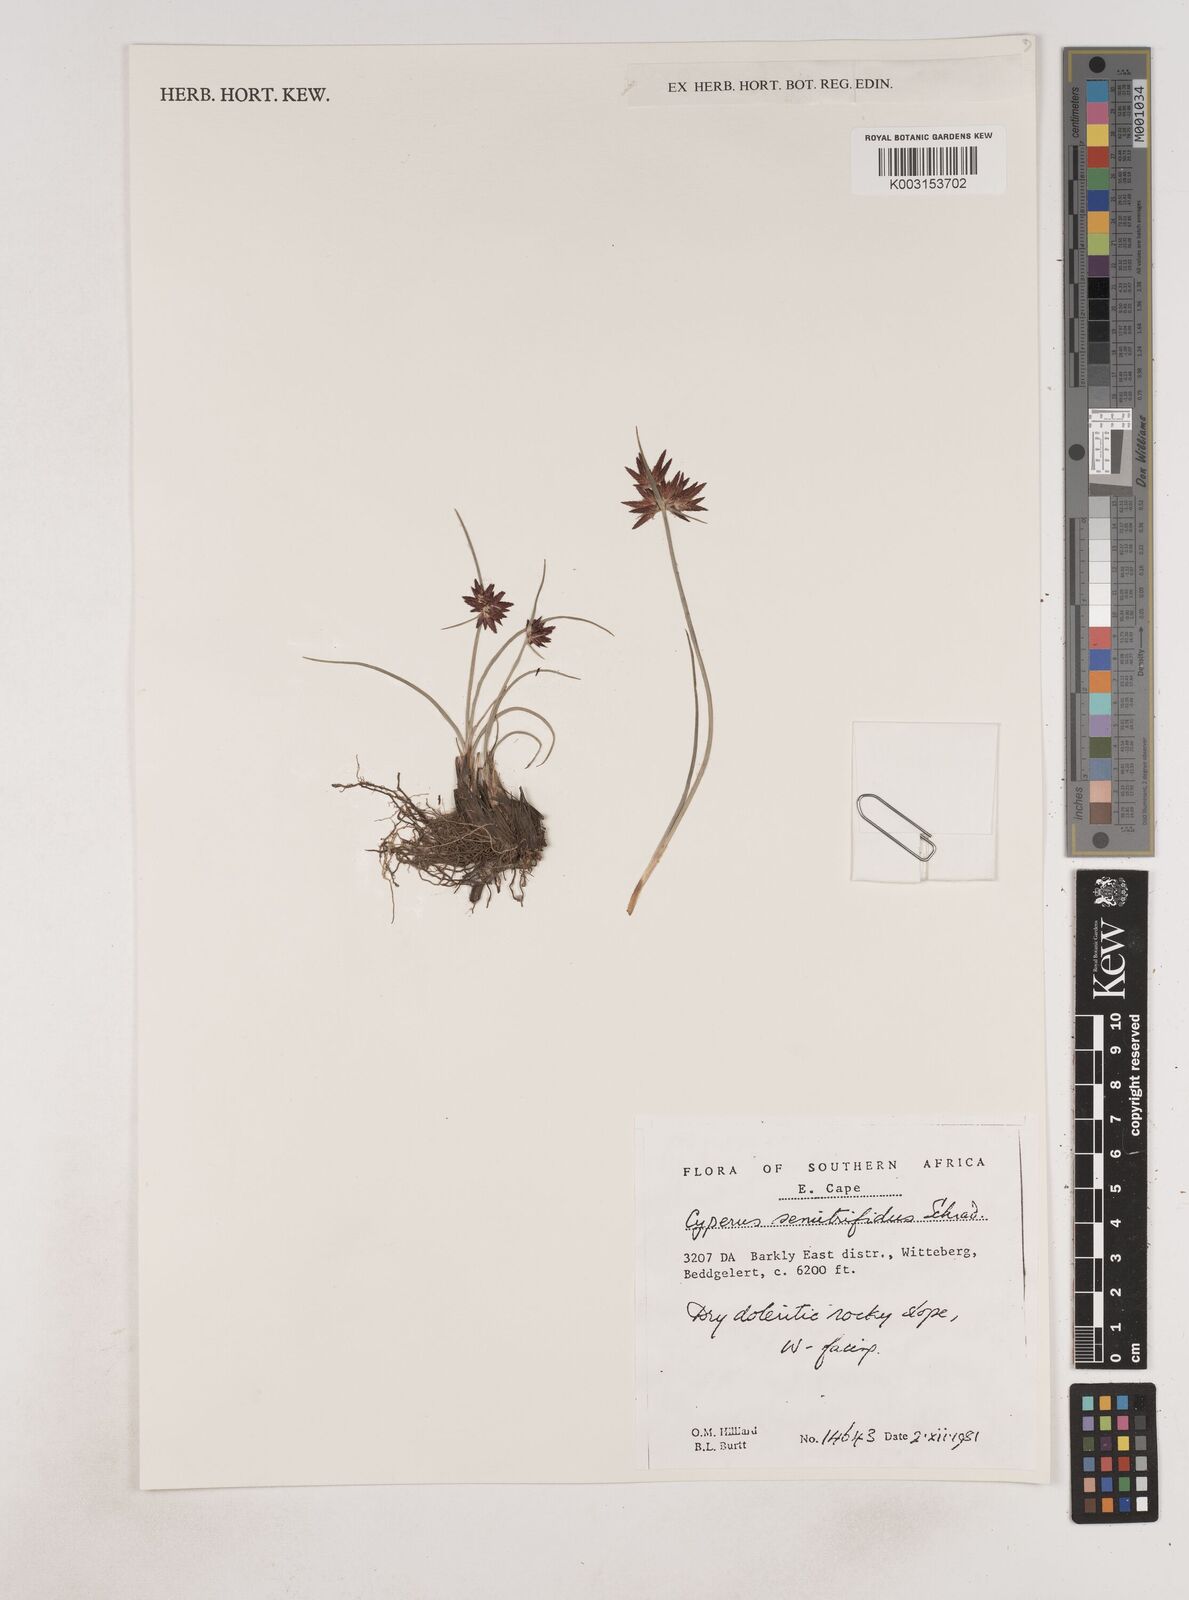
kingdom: Plantae
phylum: Tracheophyta
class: Liliopsida
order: Poales
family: Cyperaceae
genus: Cyperus
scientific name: Cyperus semitrifidus
